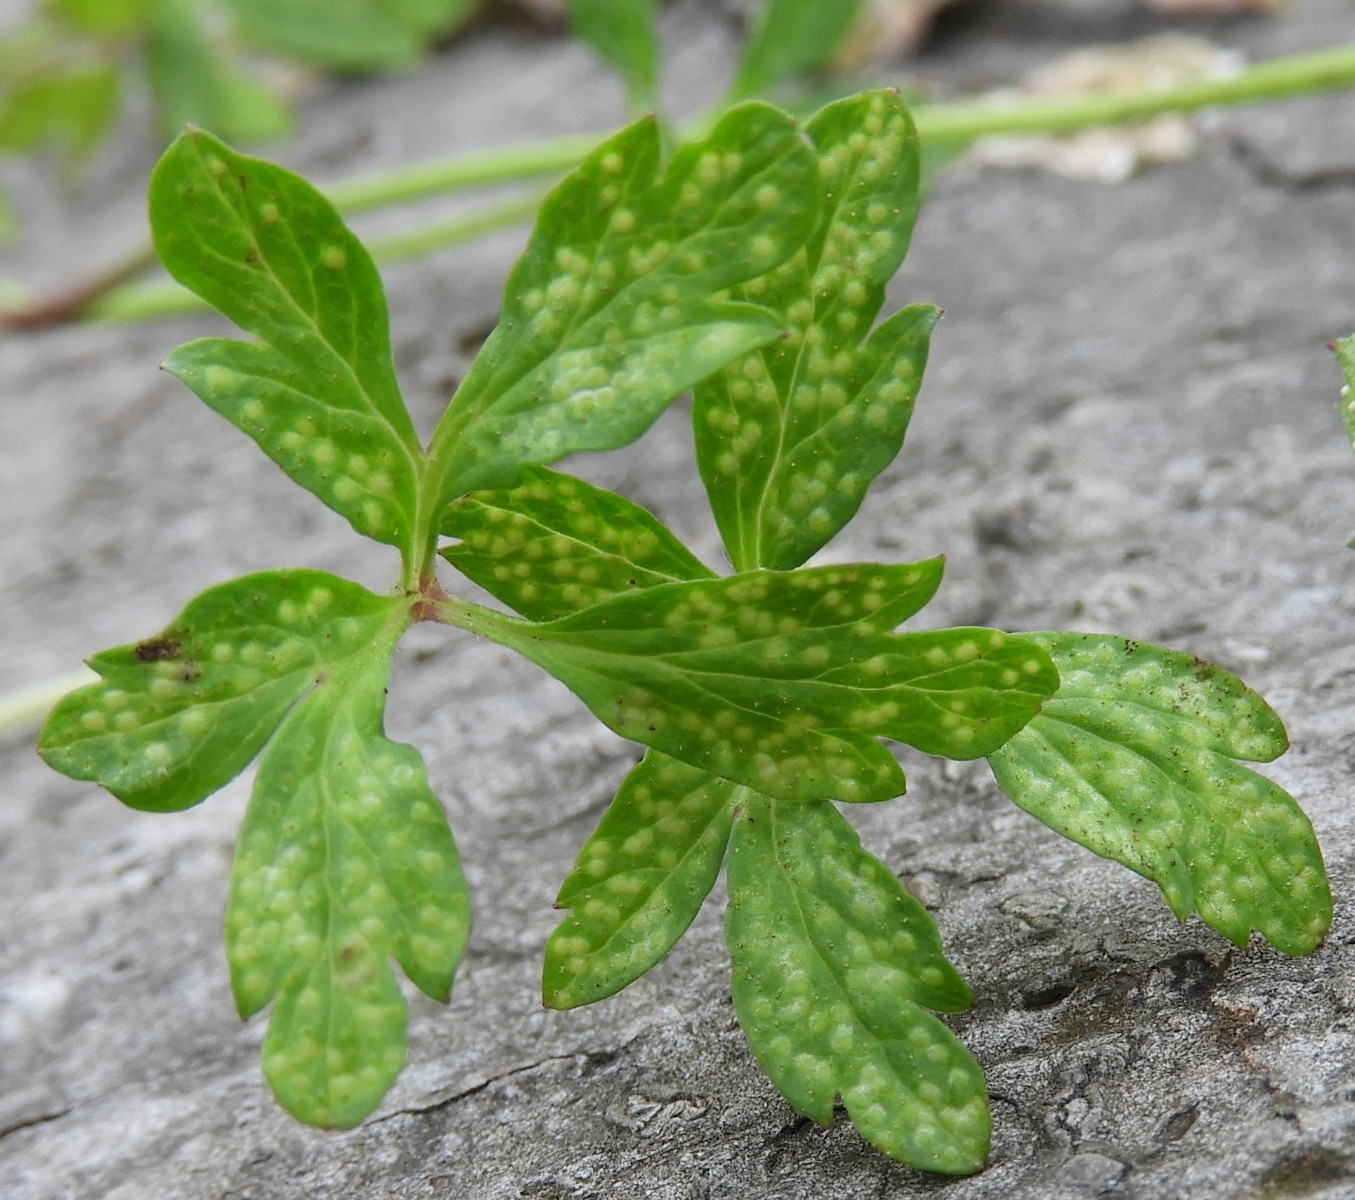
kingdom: Fungi
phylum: Basidiomycota
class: Pucciniomycetes
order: Pucciniales
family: Ochropsoraceae
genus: Ochropsora
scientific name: Ochropsora ariae
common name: anemone-okkerpletrust
